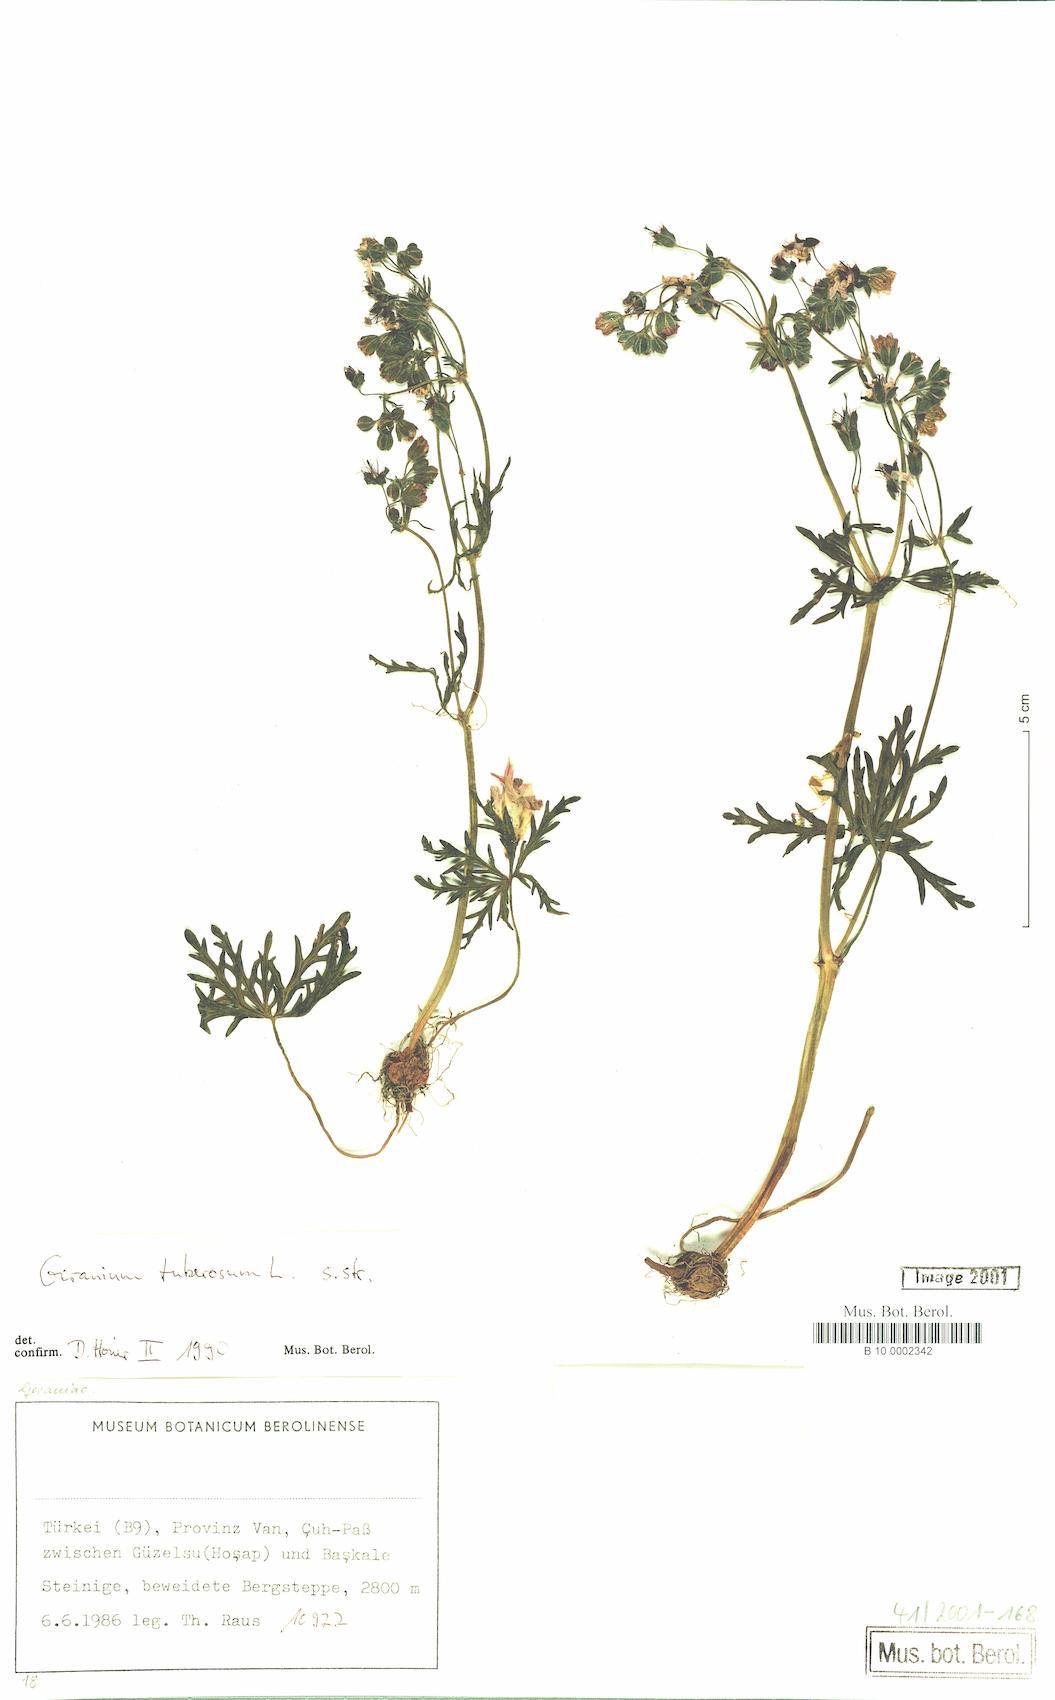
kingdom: Plantae
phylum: Tracheophyta
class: Magnoliopsida
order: Geraniales
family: Geraniaceae
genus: Geranium
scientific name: Geranium tuberosum
